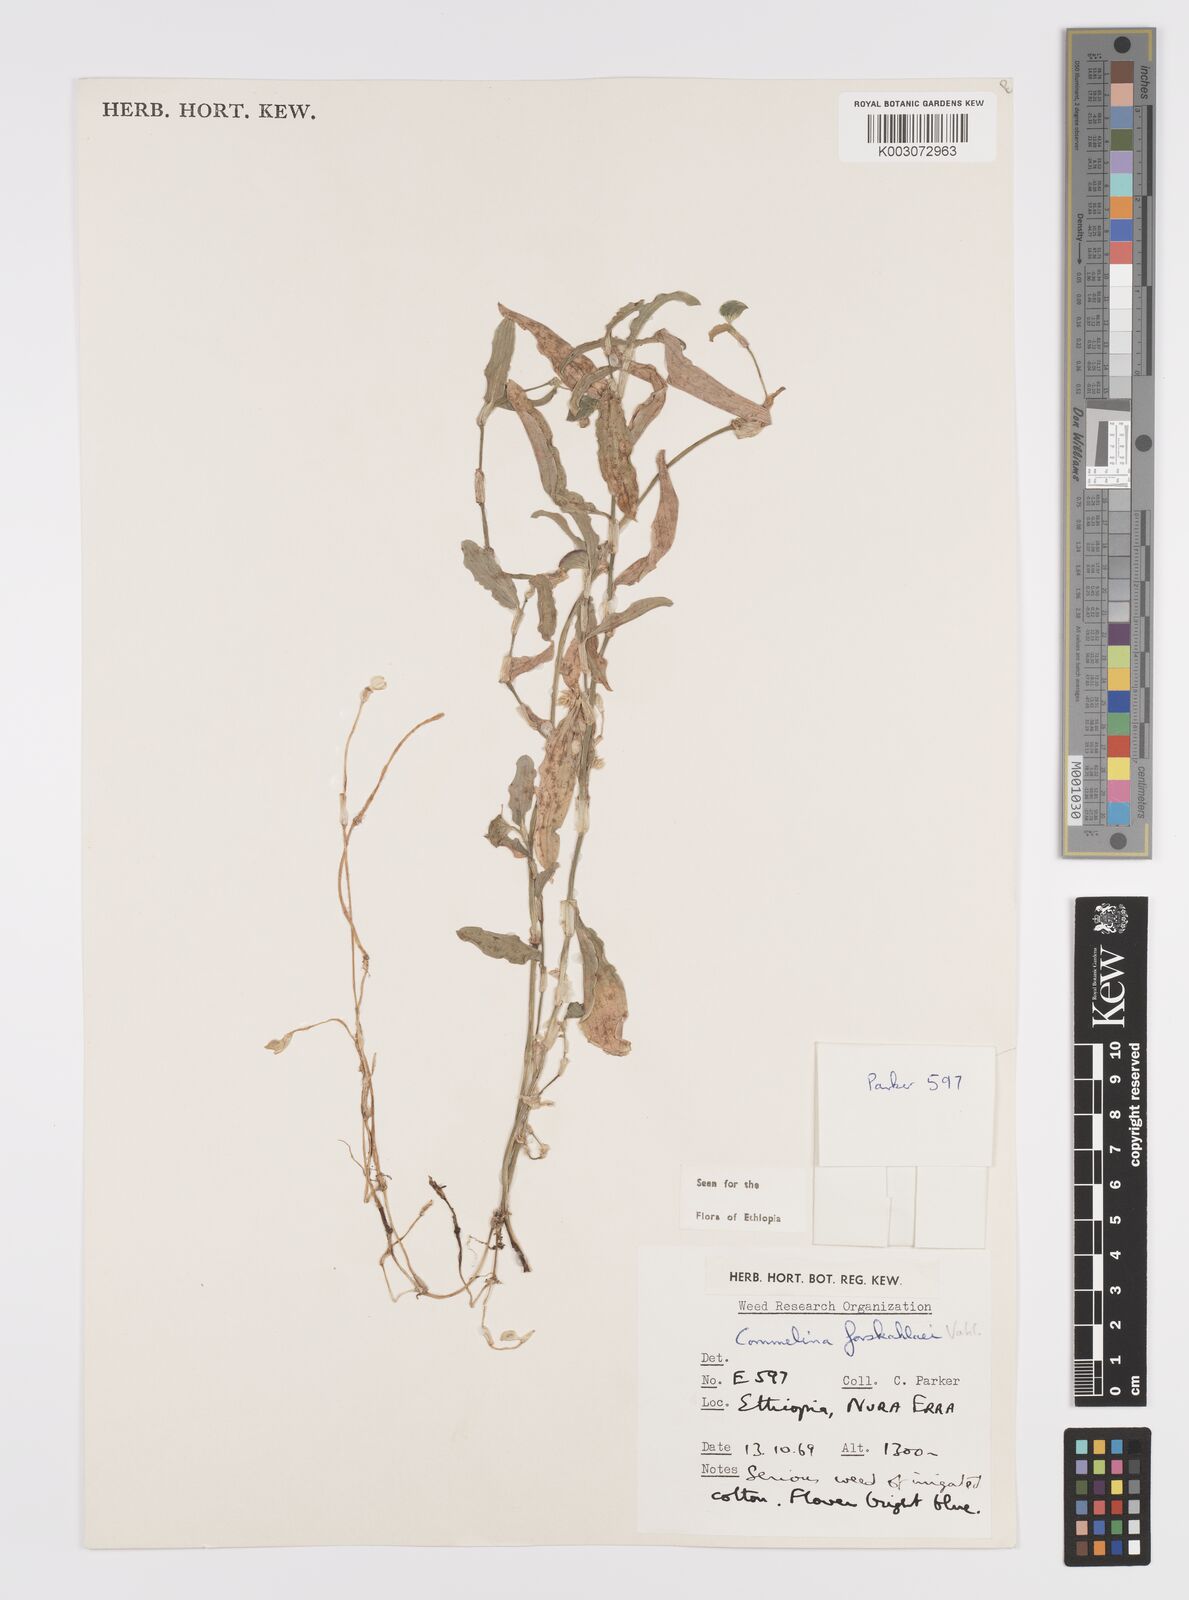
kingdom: Plantae
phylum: Tracheophyta
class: Liliopsida
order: Commelinales
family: Commelinaceae
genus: Commelina
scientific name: Commelina forskaolii
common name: Rat's ear
